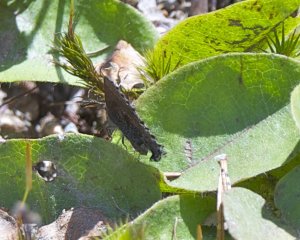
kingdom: Animalia
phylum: Arthropoda
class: Insecta
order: Lepidoptera
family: Lycaenidae
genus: Callophrys
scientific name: Callophrys polios
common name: Hoary Elfin
